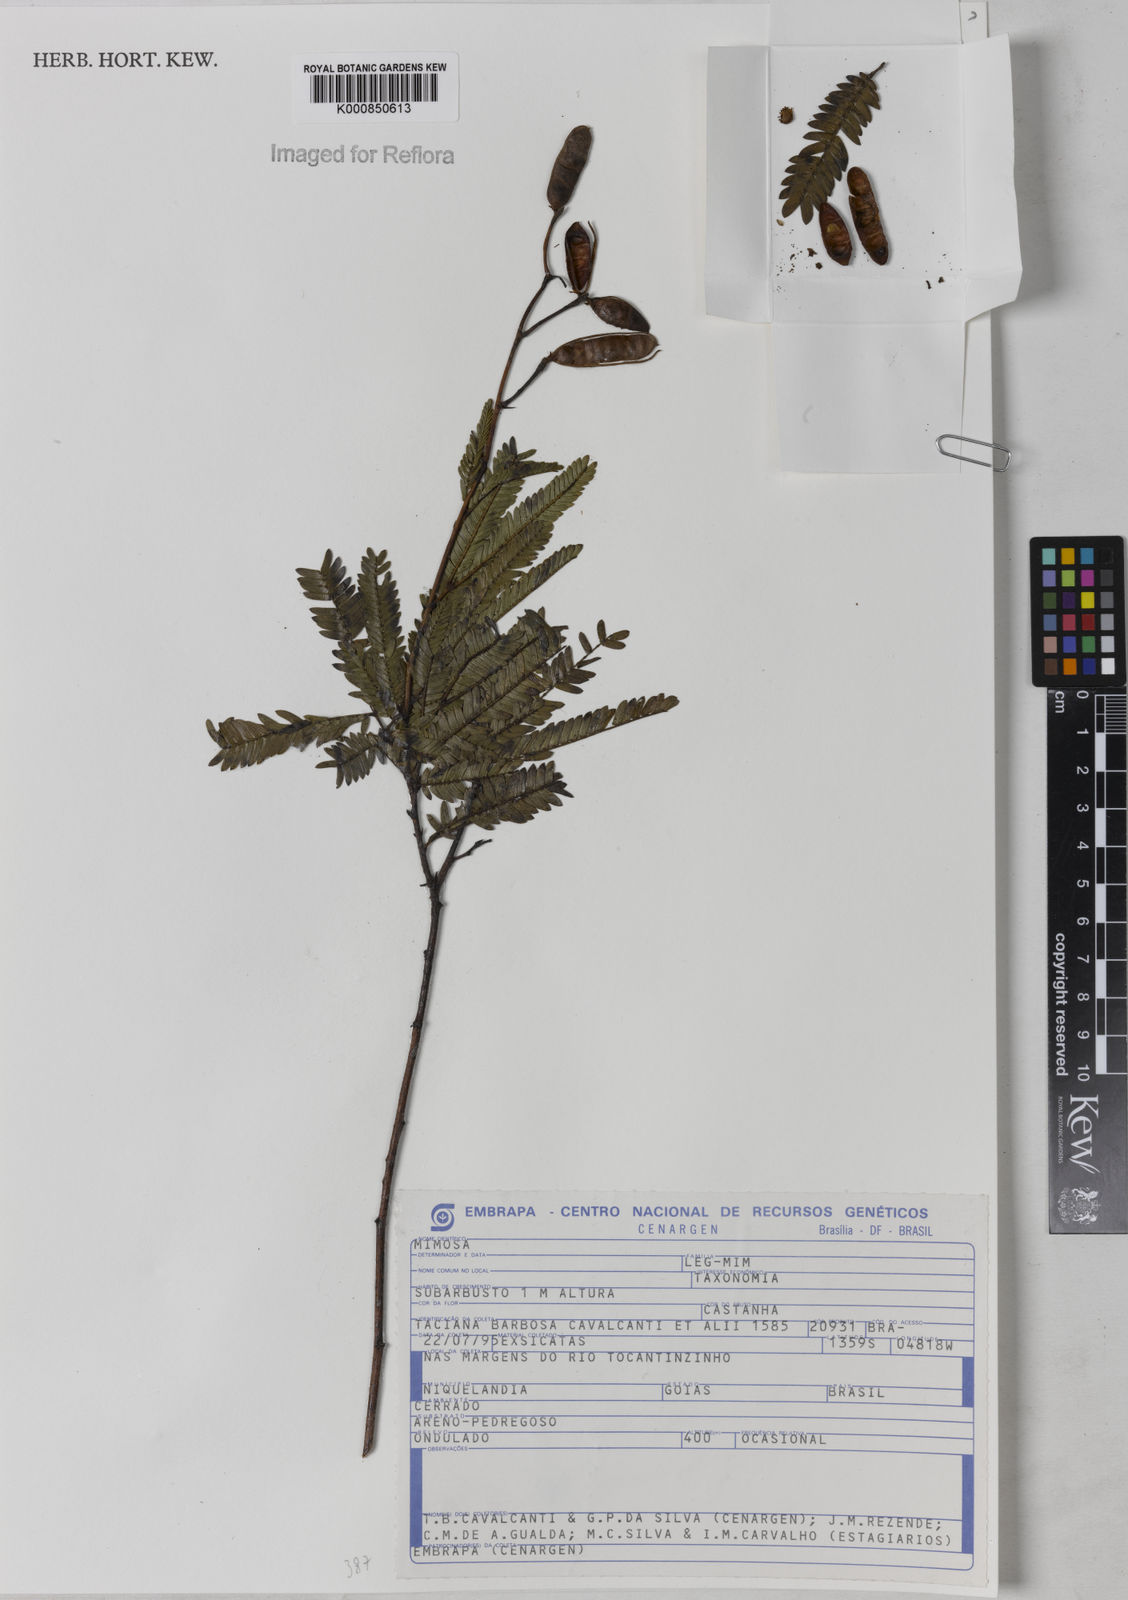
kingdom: Plantae
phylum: Tracheophyta
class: Magnoliopsida
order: Fabales
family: Fabaceae
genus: Mimosa
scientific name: Mimosa nitens
